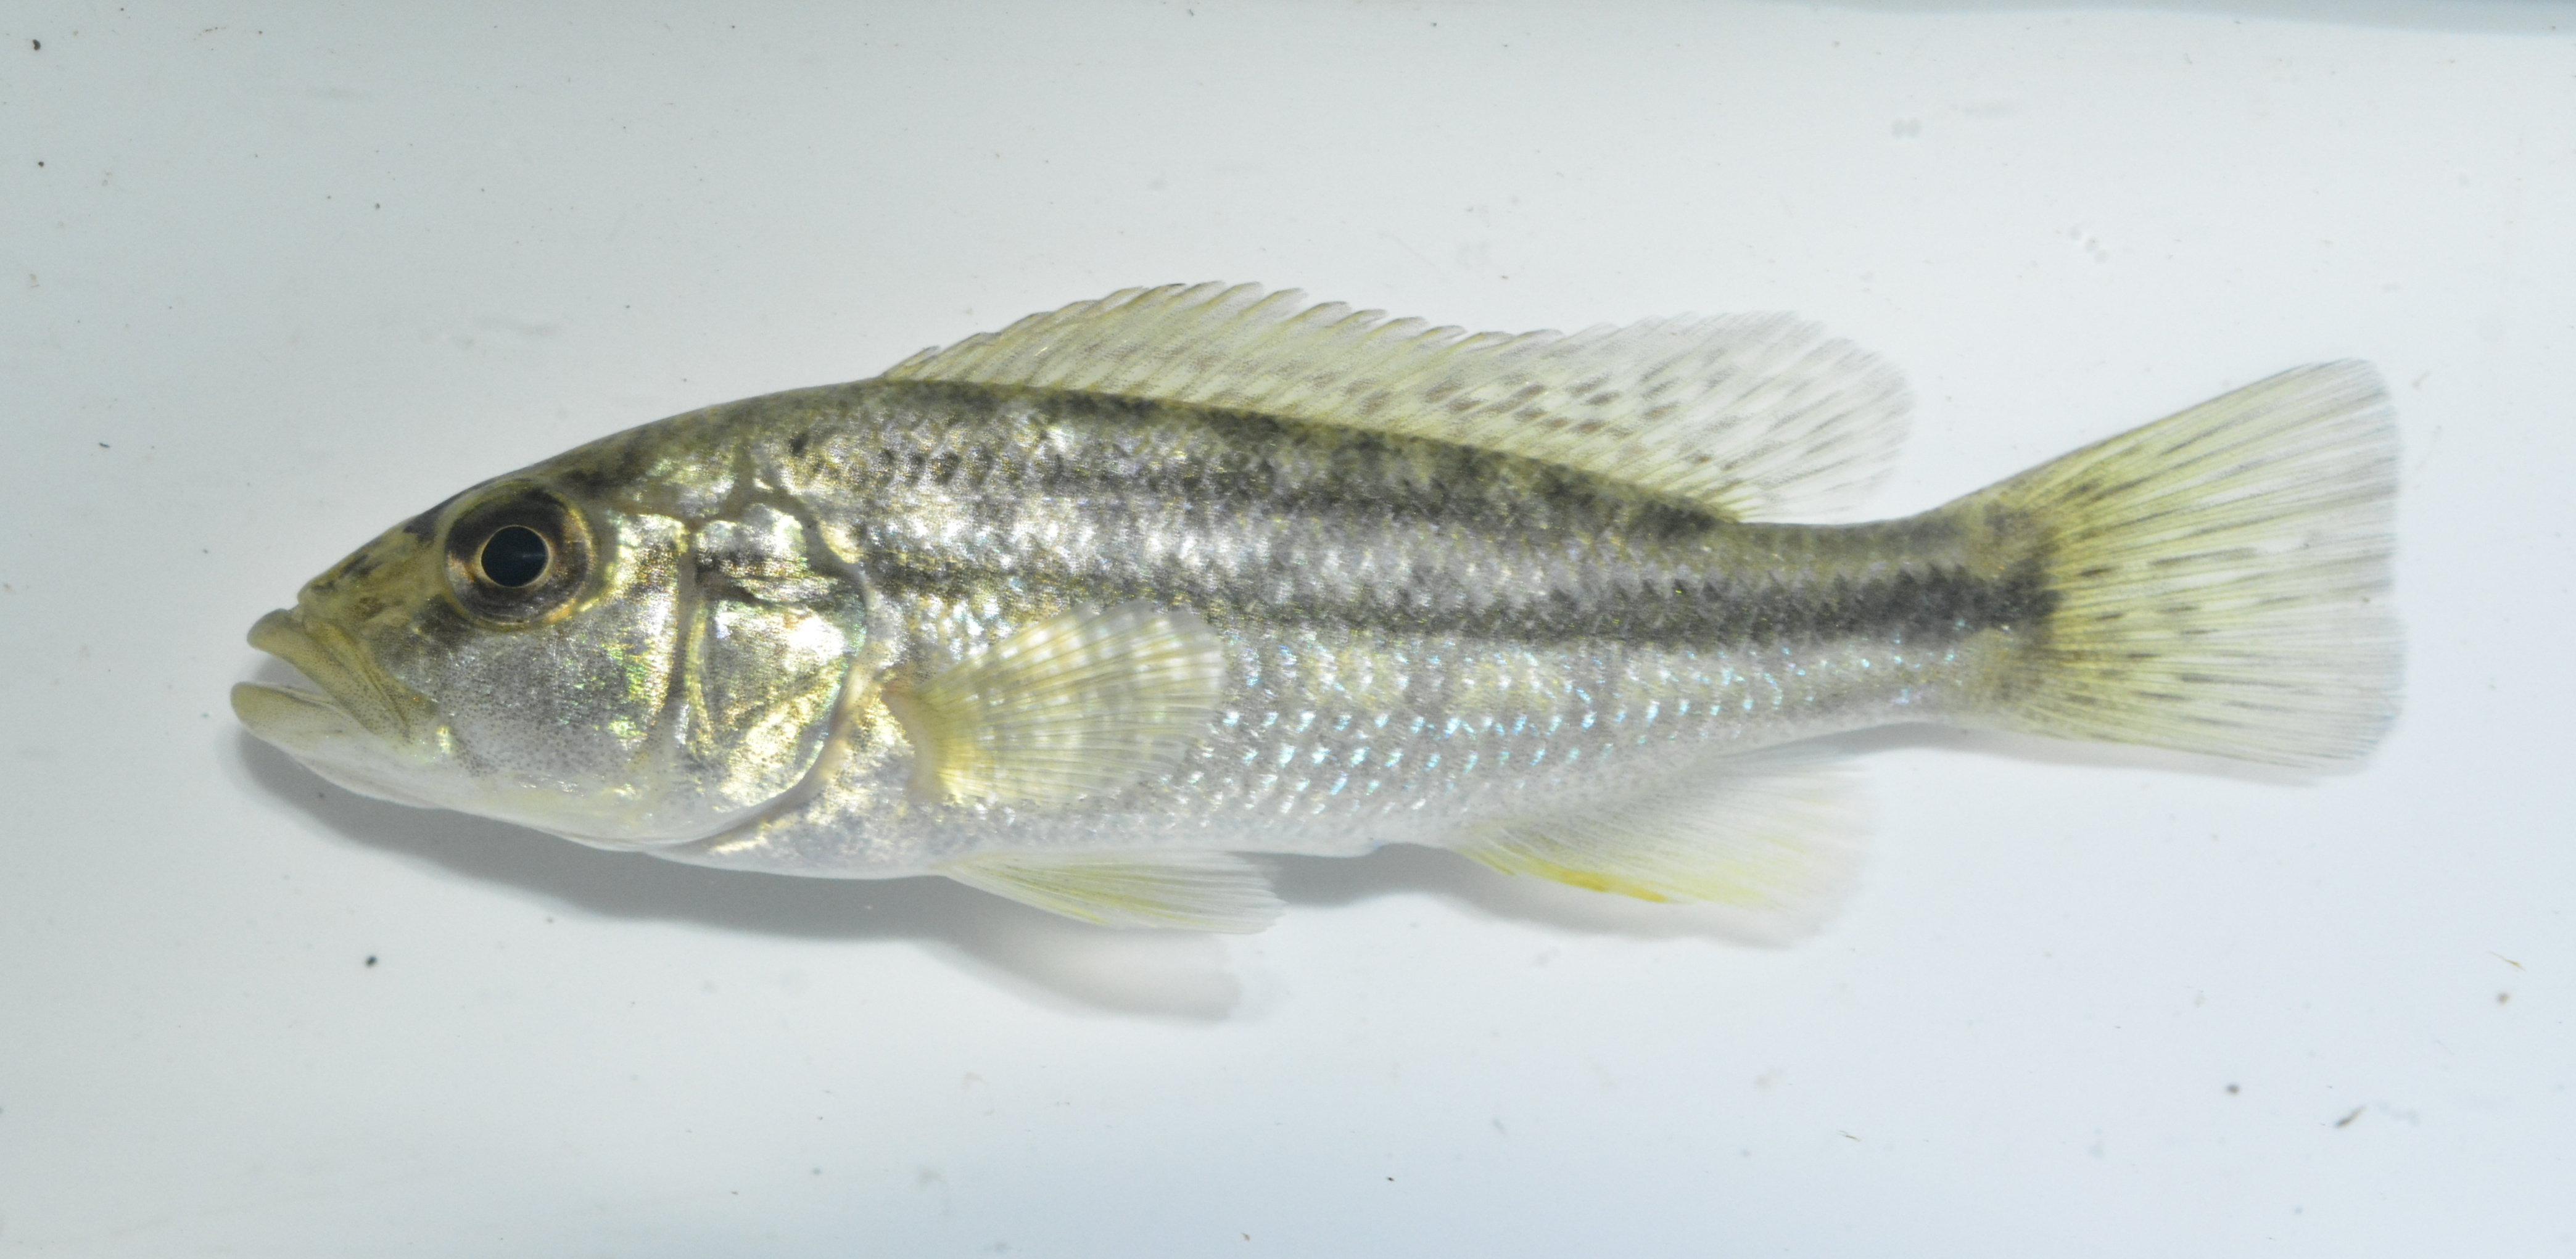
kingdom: Animalia
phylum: Chordata
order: Perciformes
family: Cichlidae
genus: Serranochromis
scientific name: Serranochromis robustus
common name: Yellow-belly bream
